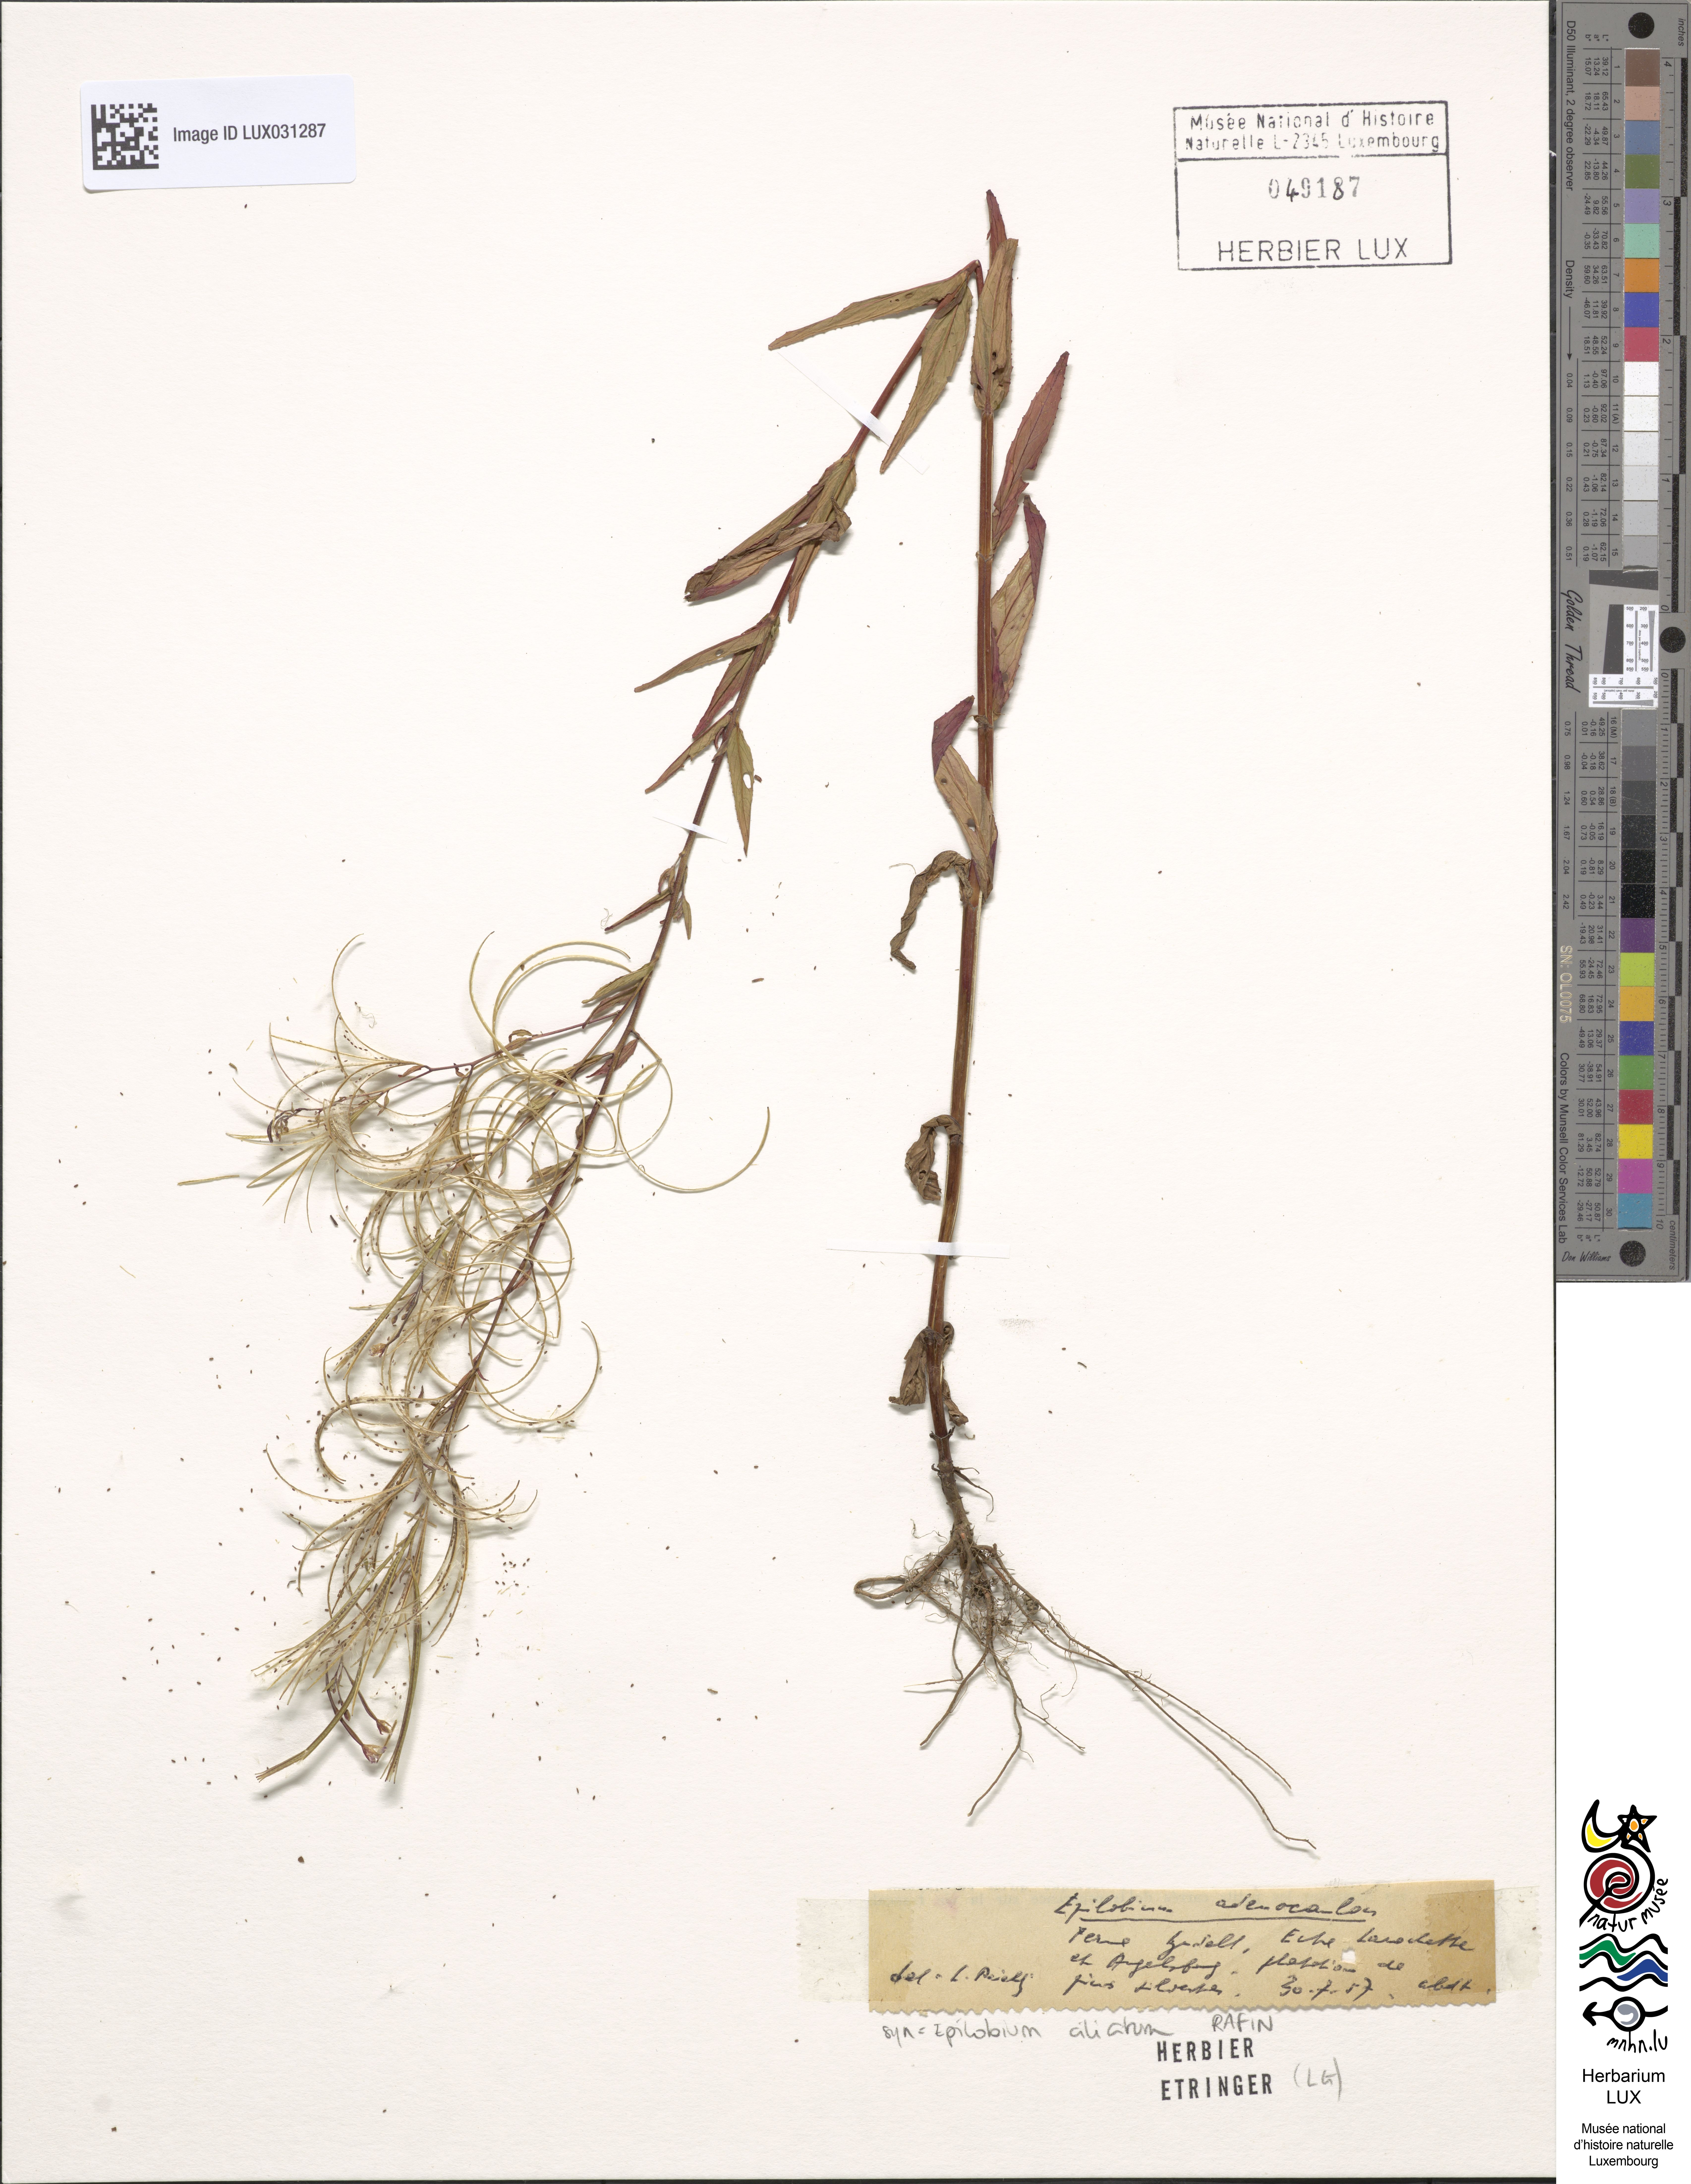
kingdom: Plantae
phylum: Tracheophyta
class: Magnoliopsida
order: Myrtales
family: Onagraceae
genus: Epilobium
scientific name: Epilobium ciliatum
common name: American willowherb
